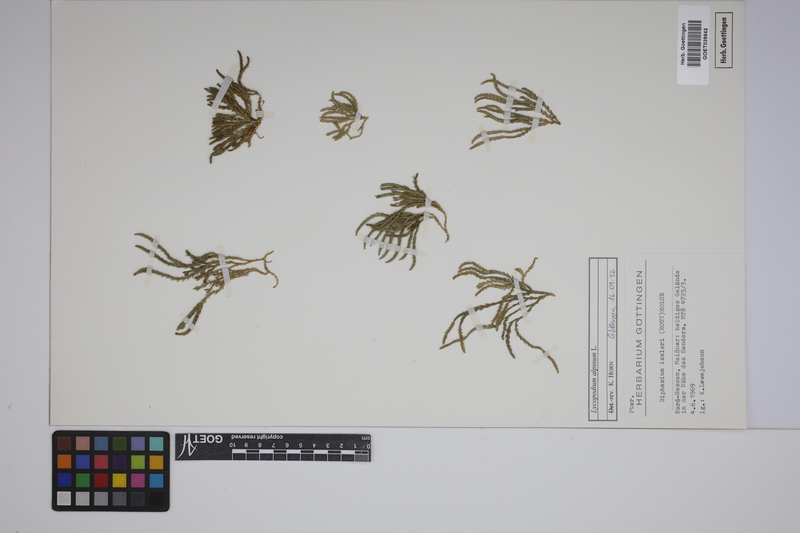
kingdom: Plantae
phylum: Tracheophyta
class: Lycopodiopsida
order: Lycopodiales
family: Lycopodiaceae
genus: Diphasiastrum
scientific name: Diphasiastrum alpinum
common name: Alpine clubmoss
